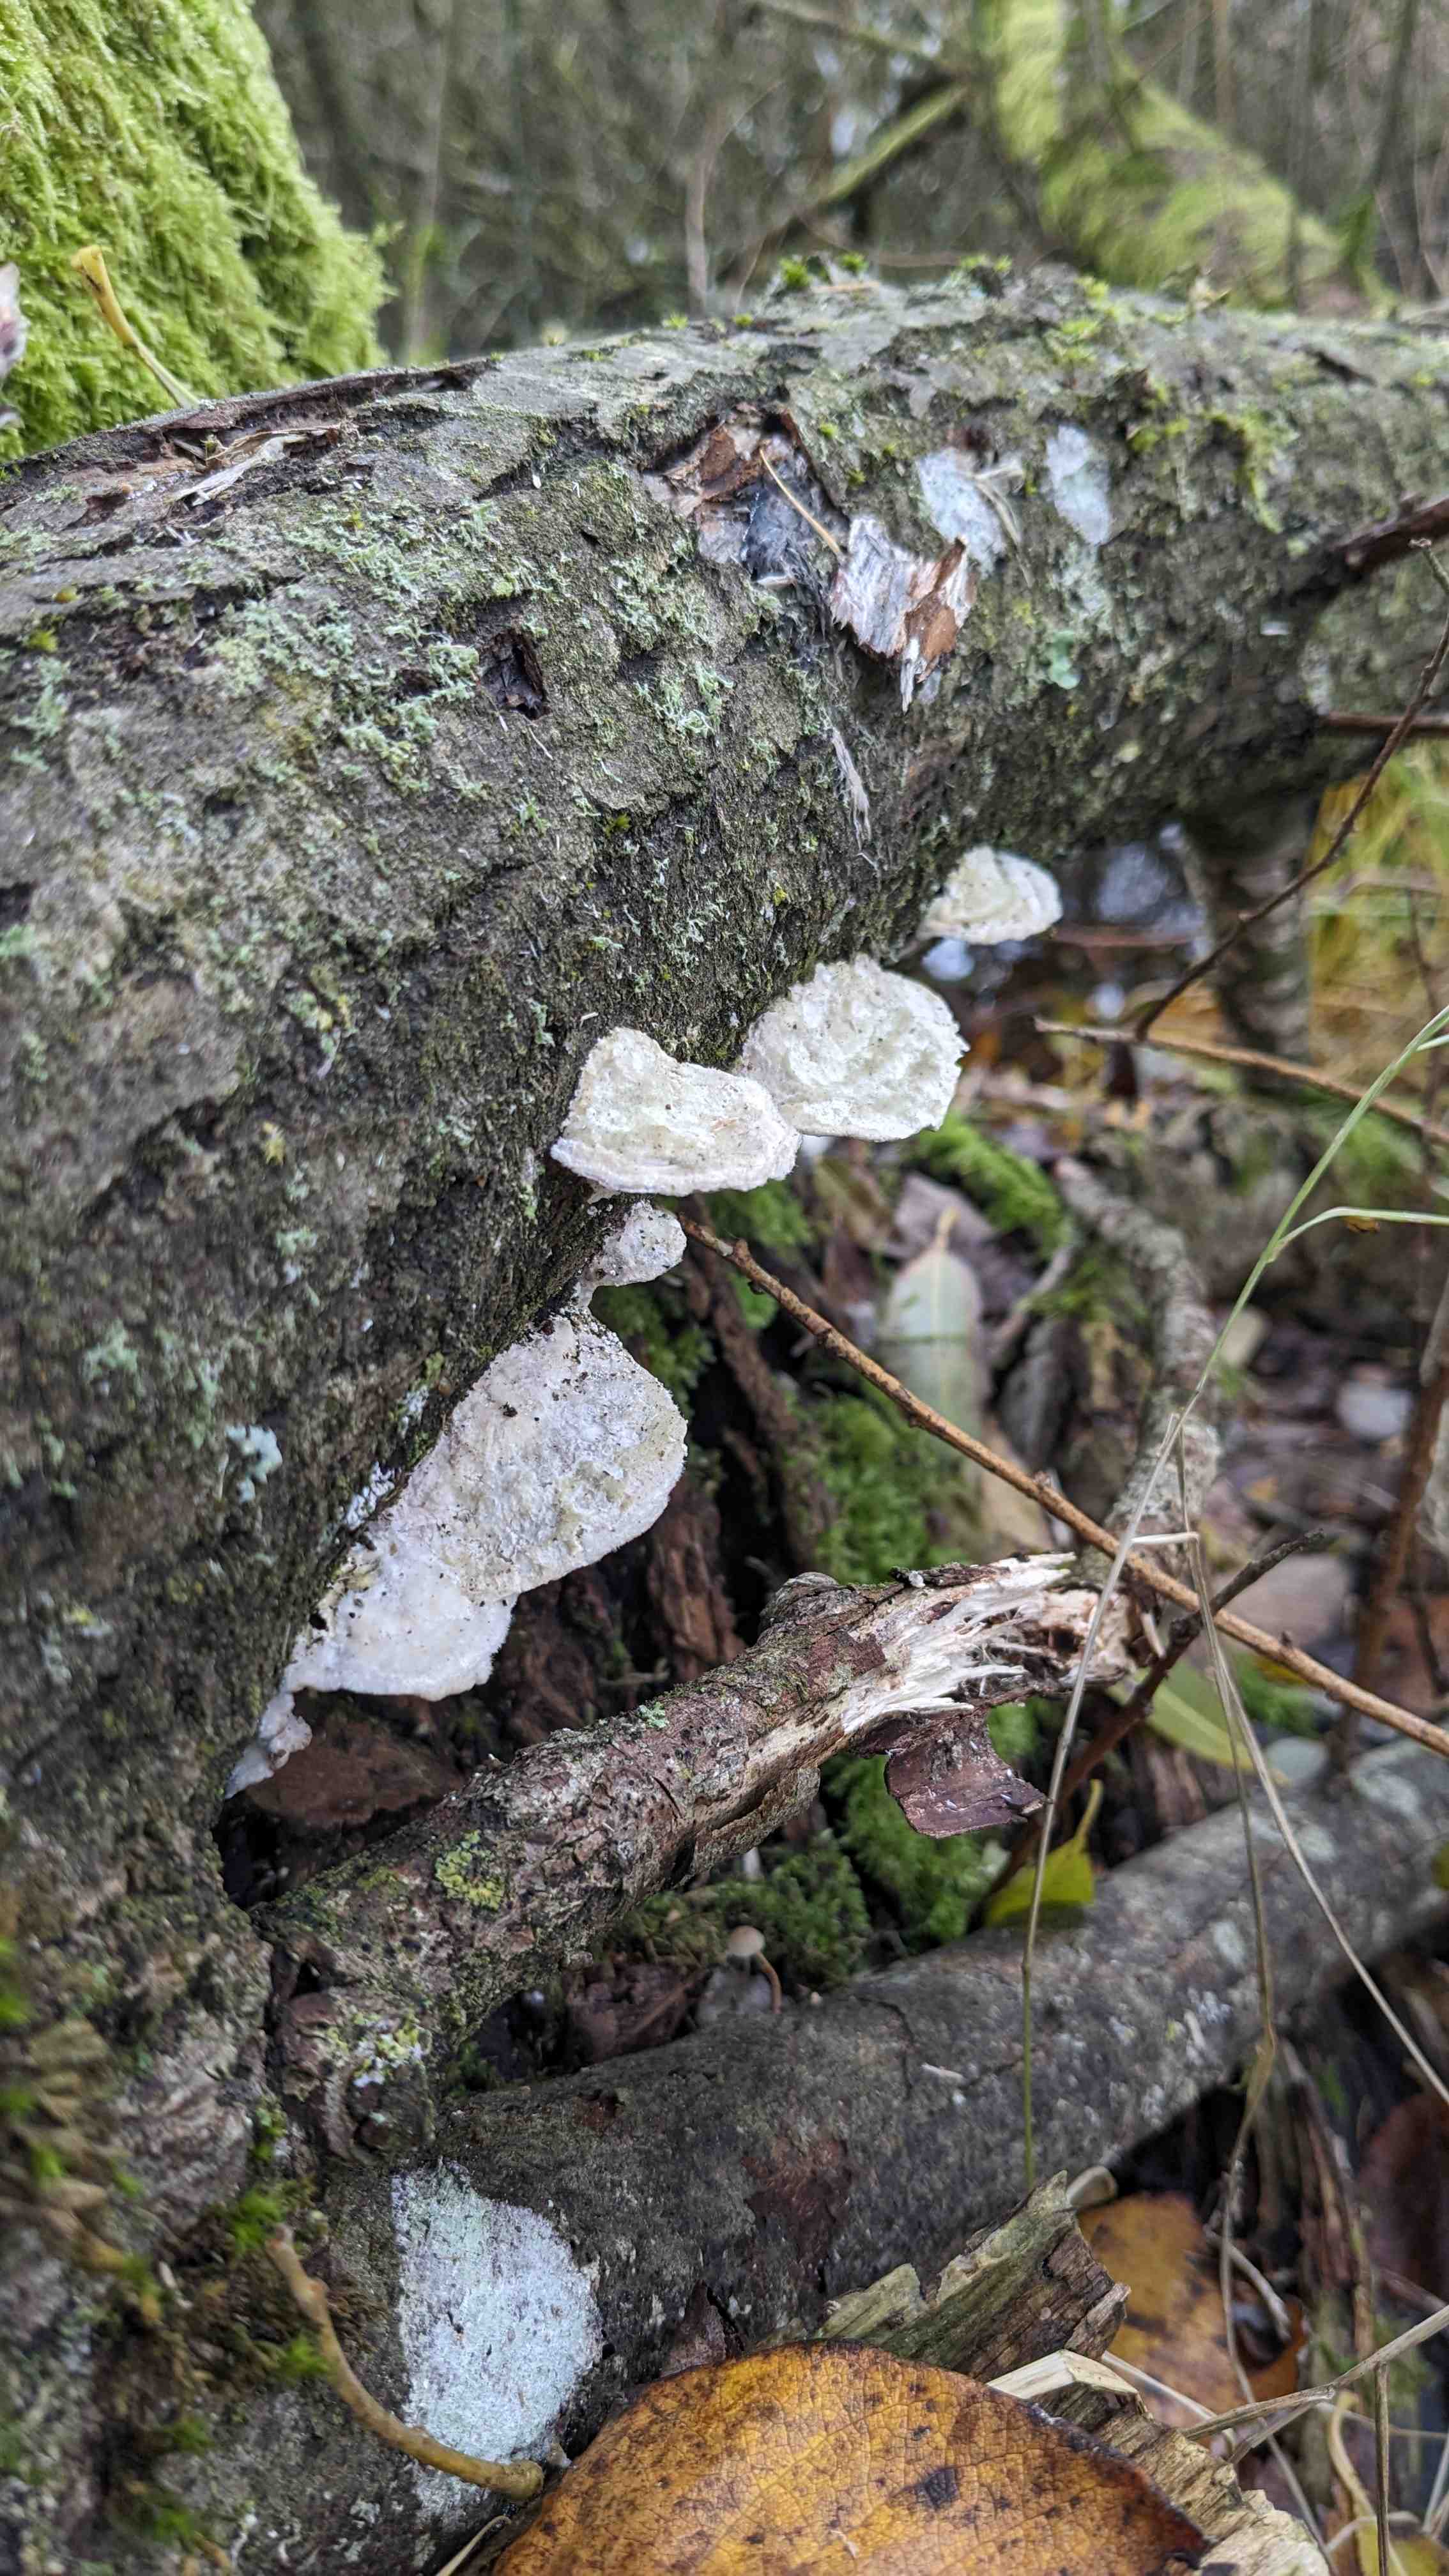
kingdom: Fungi
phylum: Basidiomycota
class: Agaricomycetes
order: Polyporales
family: Polyporaceae
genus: Trametes
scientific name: Trametes hirsuta
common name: håret læderporesvamp
